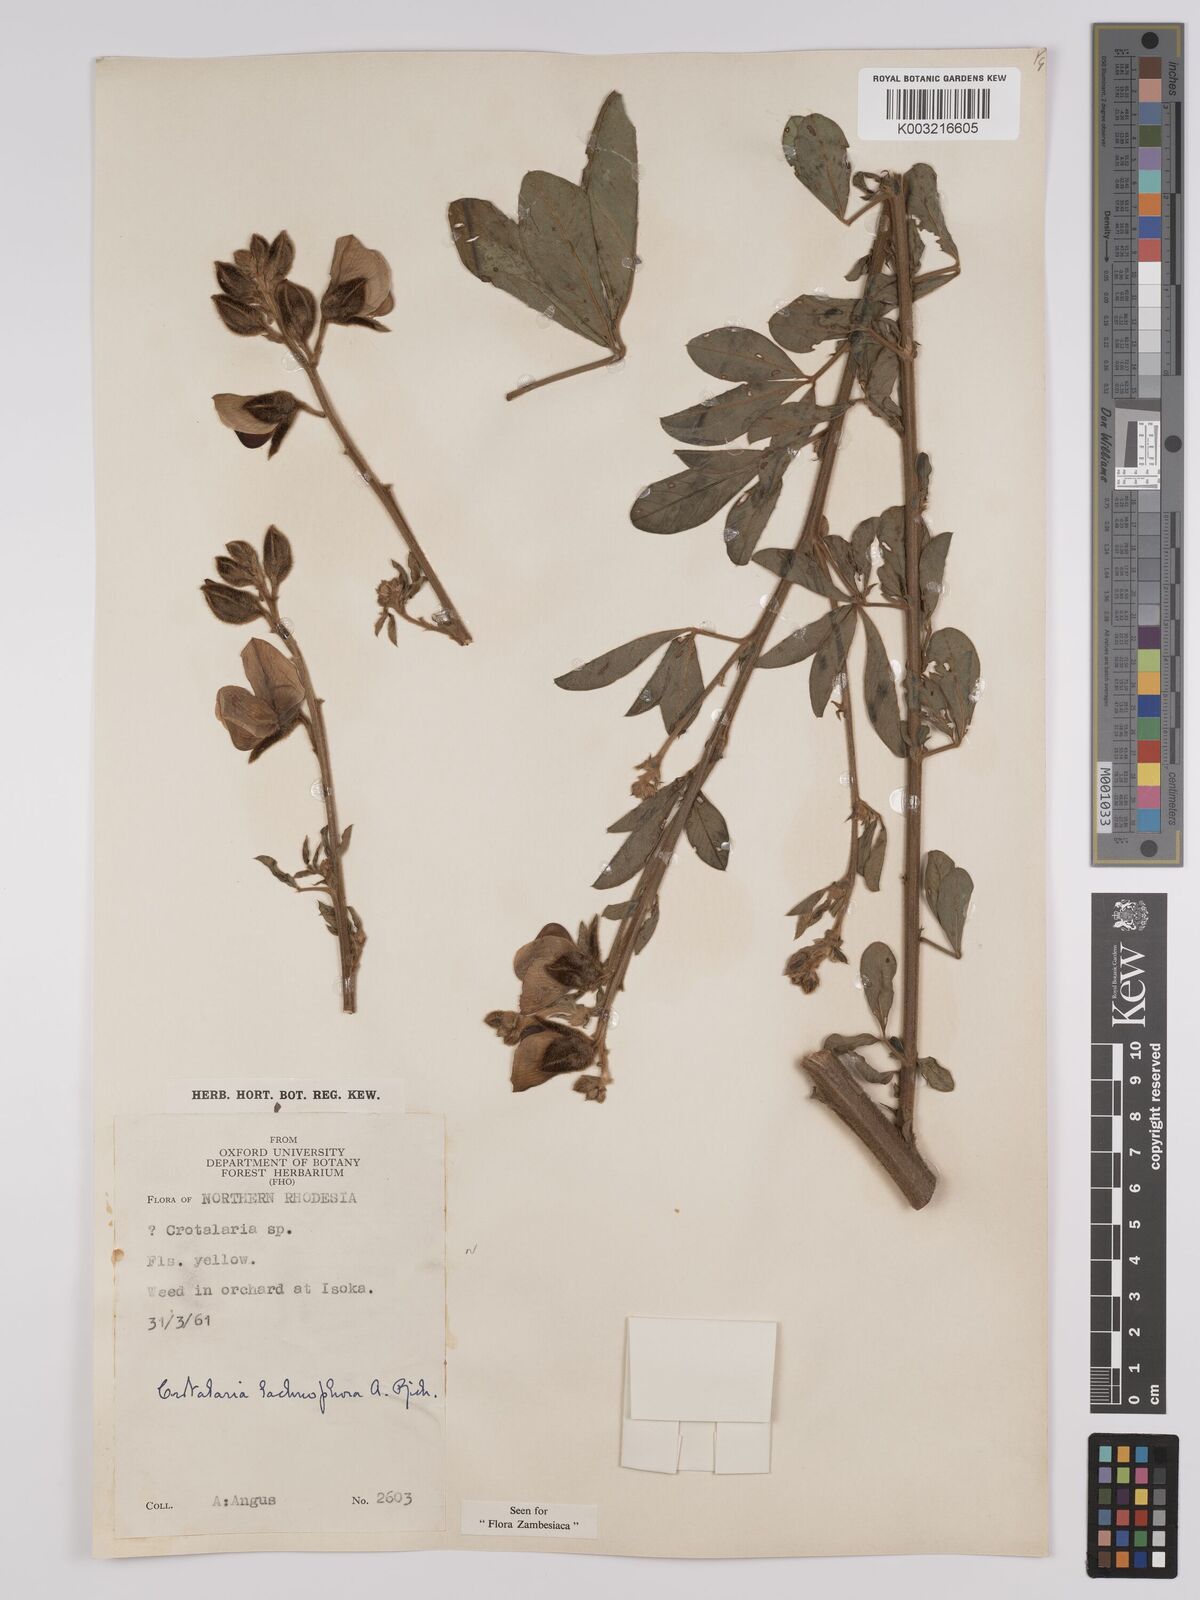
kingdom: Plantae
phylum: Tracheophyta
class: Magnoliopsida
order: Fabales
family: Fabaceae
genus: Crotalaria
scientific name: Crotalaria lachnophora
